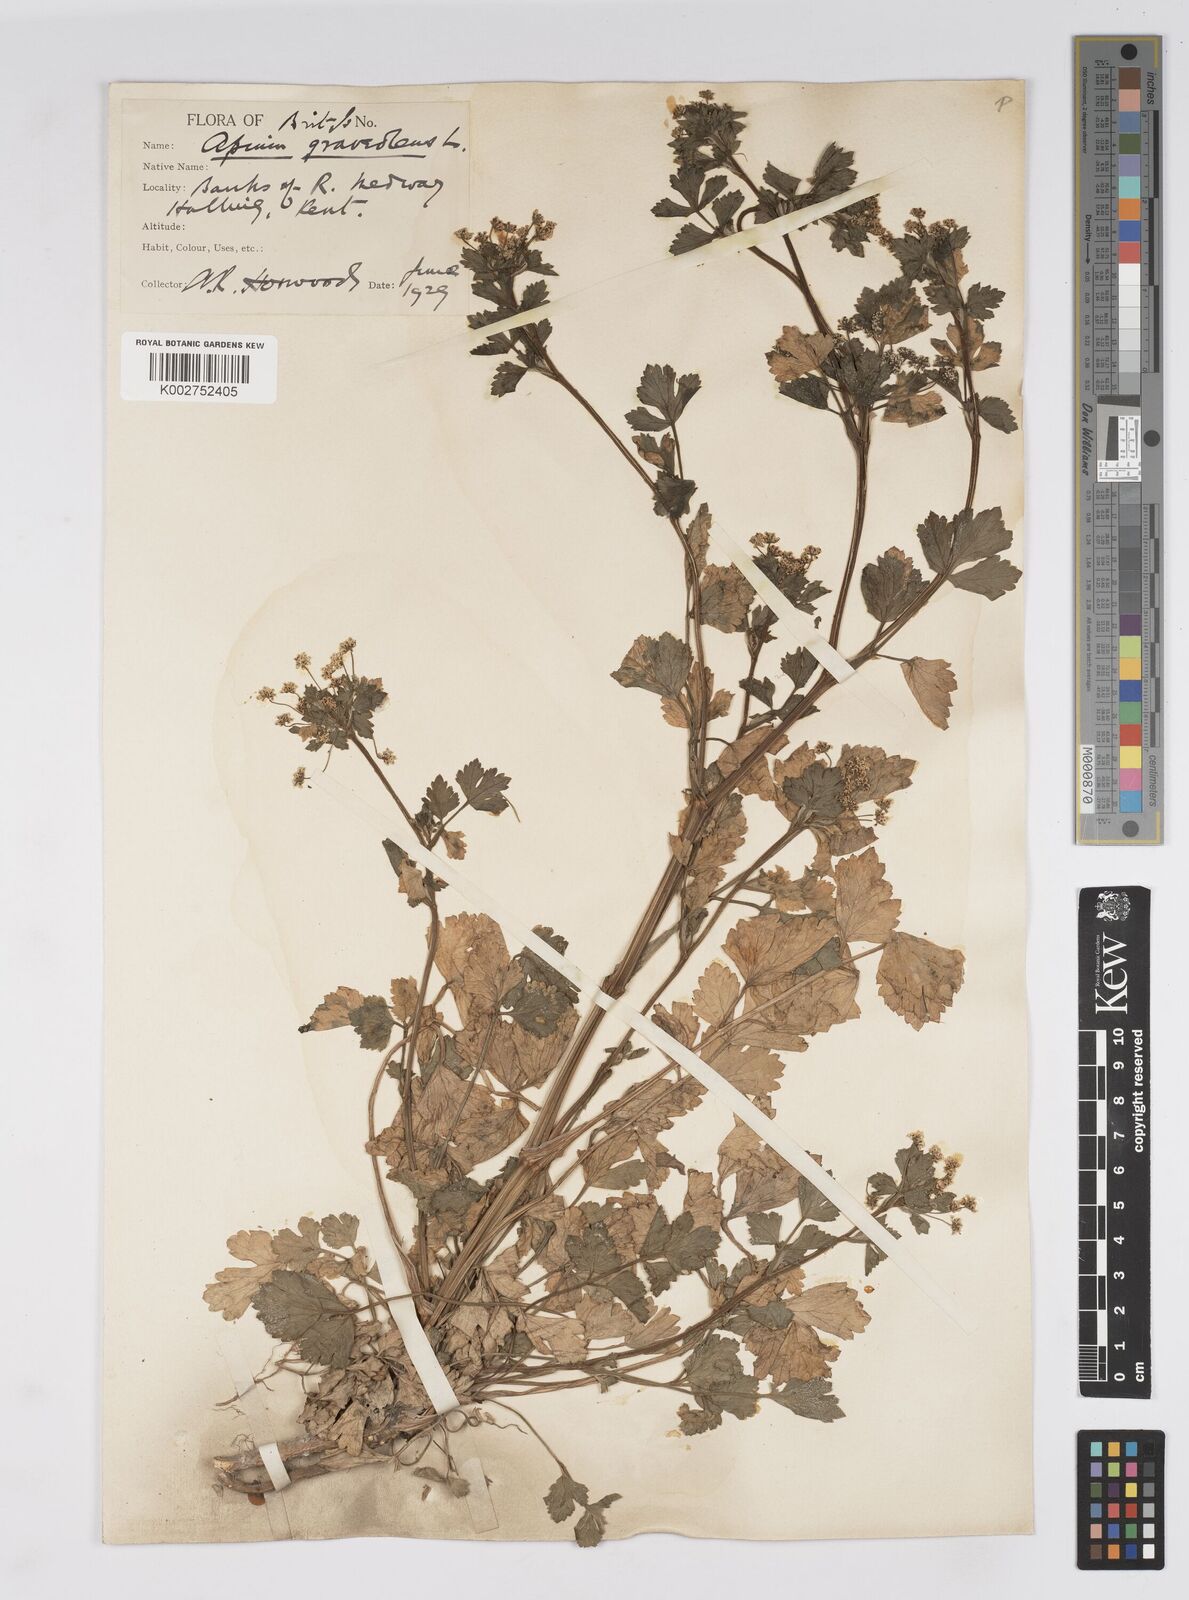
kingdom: Plantae
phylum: Tracheophyta
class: Magnoliopsida
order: Apiales
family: Apiaceae
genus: Apium
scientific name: Apium graveolens
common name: Wild celery
